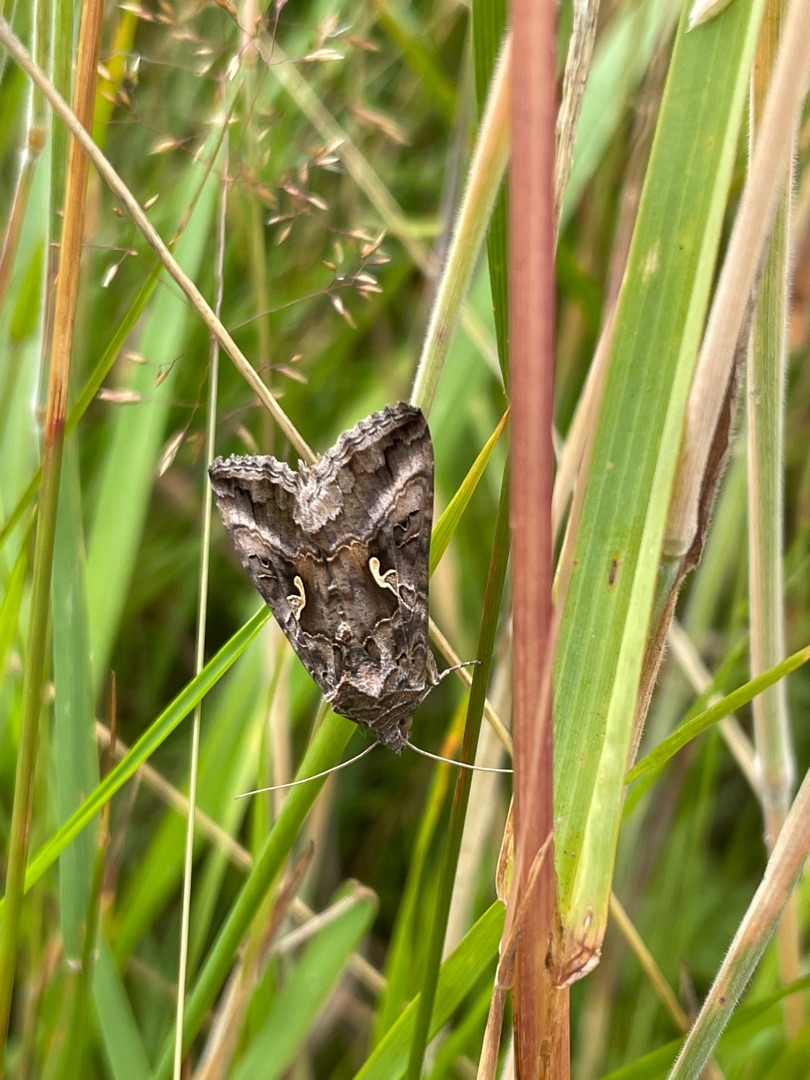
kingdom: Animalia
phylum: Arthropoda
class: Insecta
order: Lepidoptera
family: Noctuidae
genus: Autographa
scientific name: Autographa gamma
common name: Gammaugle
